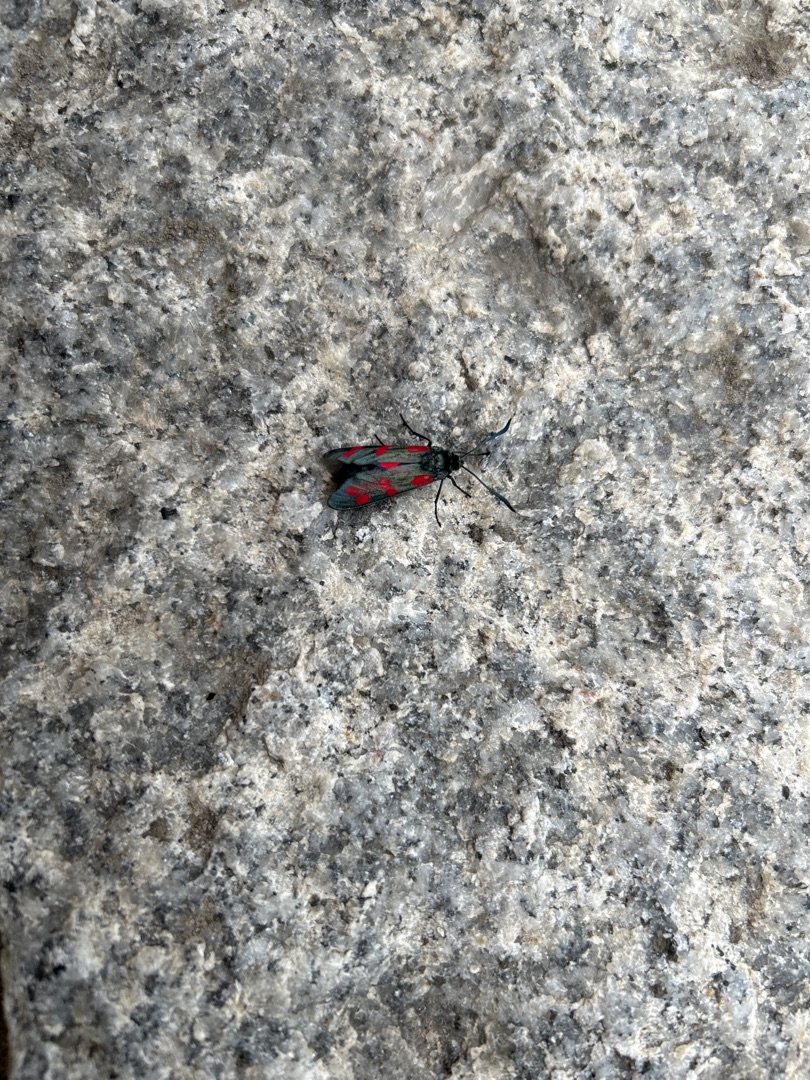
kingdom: Animalia
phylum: Arthropoda
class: Insecta
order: Lepidoptera
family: Zygaenidae
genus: Zygaena
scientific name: Zygaena filipendulae
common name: Seksplettet køllesværmer
